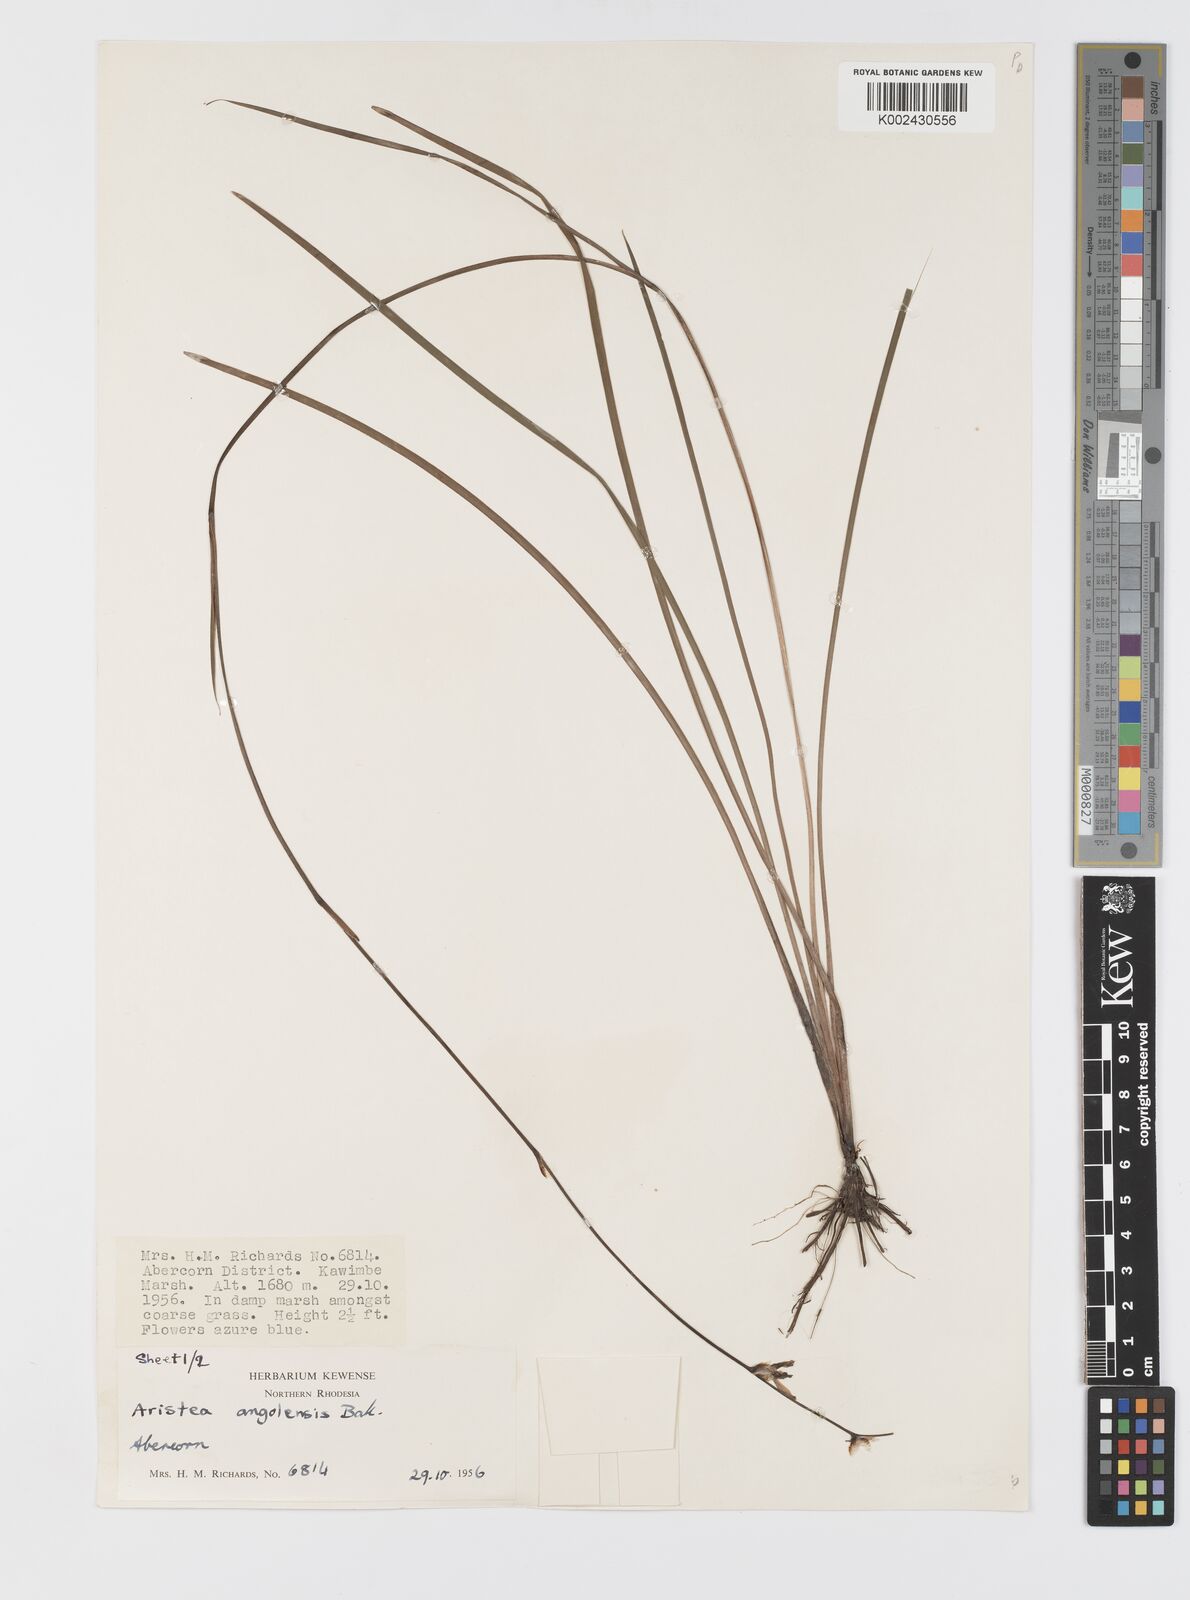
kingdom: Plantae
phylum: Tracheophyta
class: Liliopsida
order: Asparagales
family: Iridaceae
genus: Aristea
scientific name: Aristea angolensis
